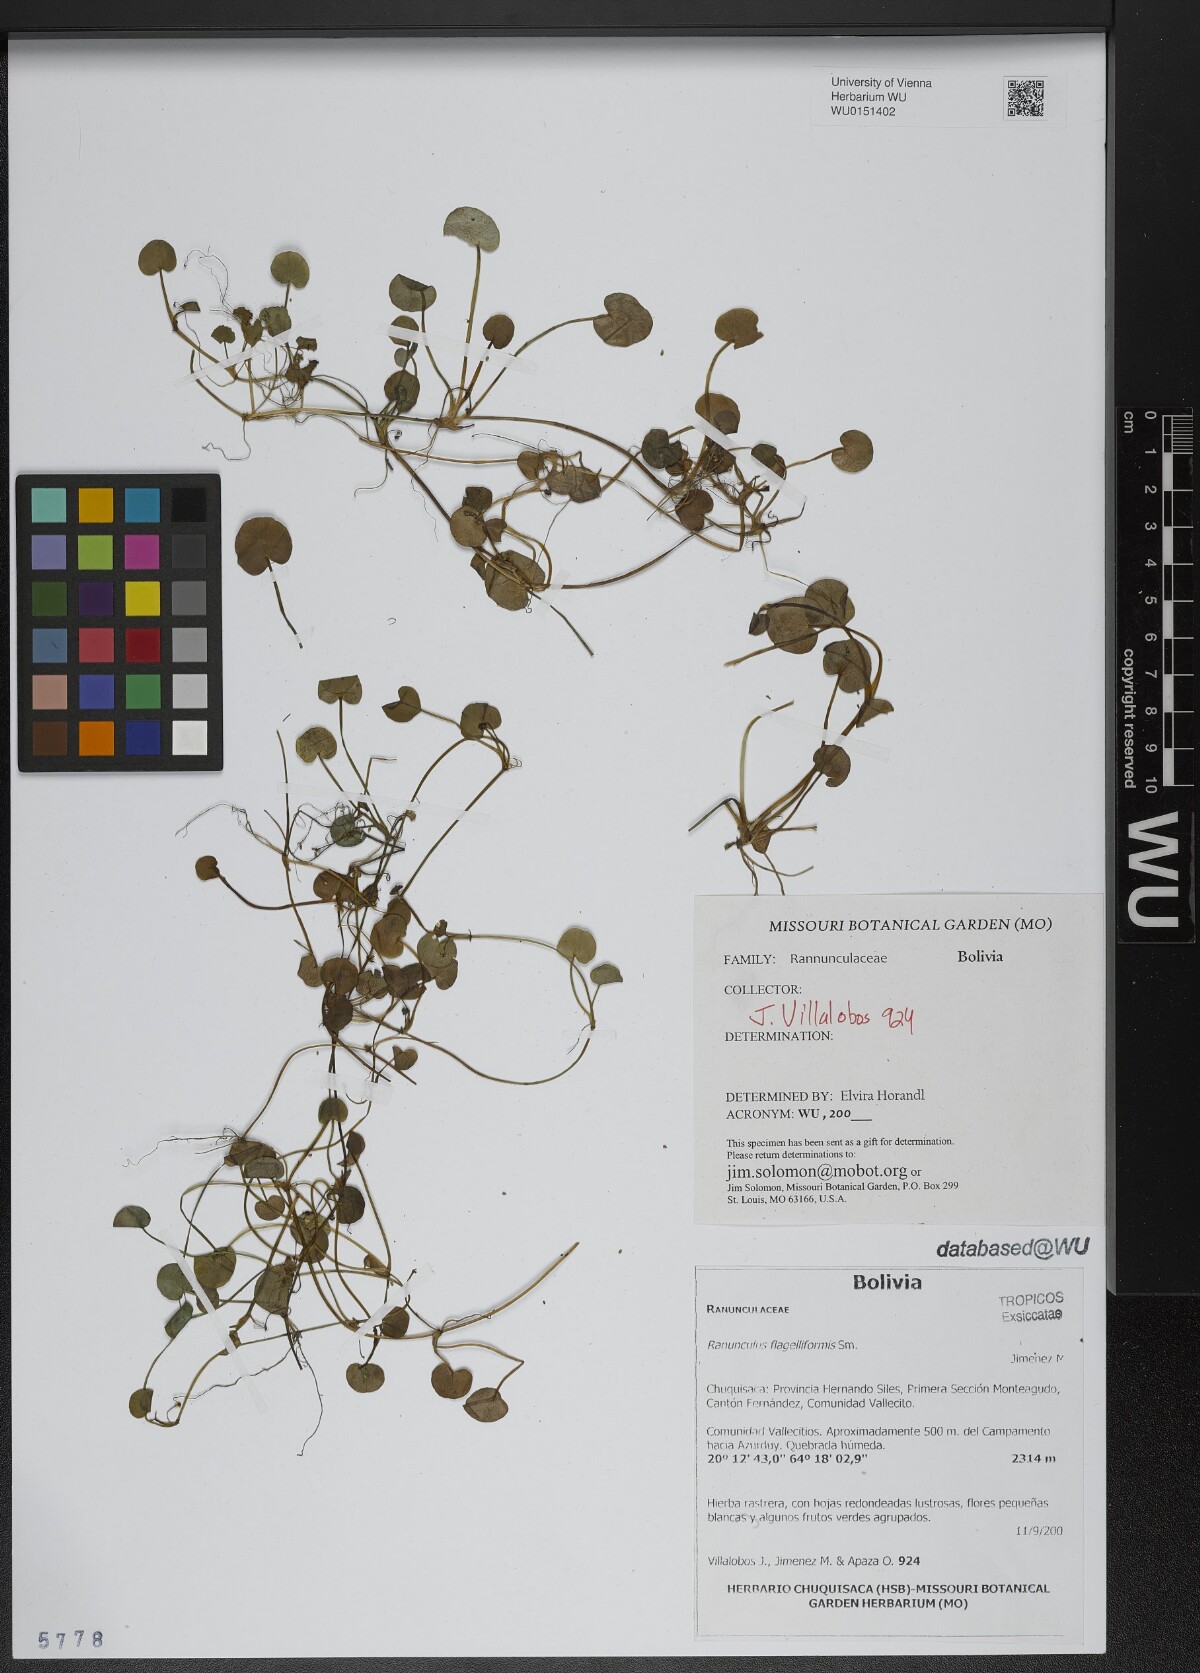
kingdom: Plantae
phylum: Tracheophyta
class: Magnoliopsida
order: Ranunculales
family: Ranunculaceae
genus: Ranunculus
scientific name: Ranunculus flagelliformis
